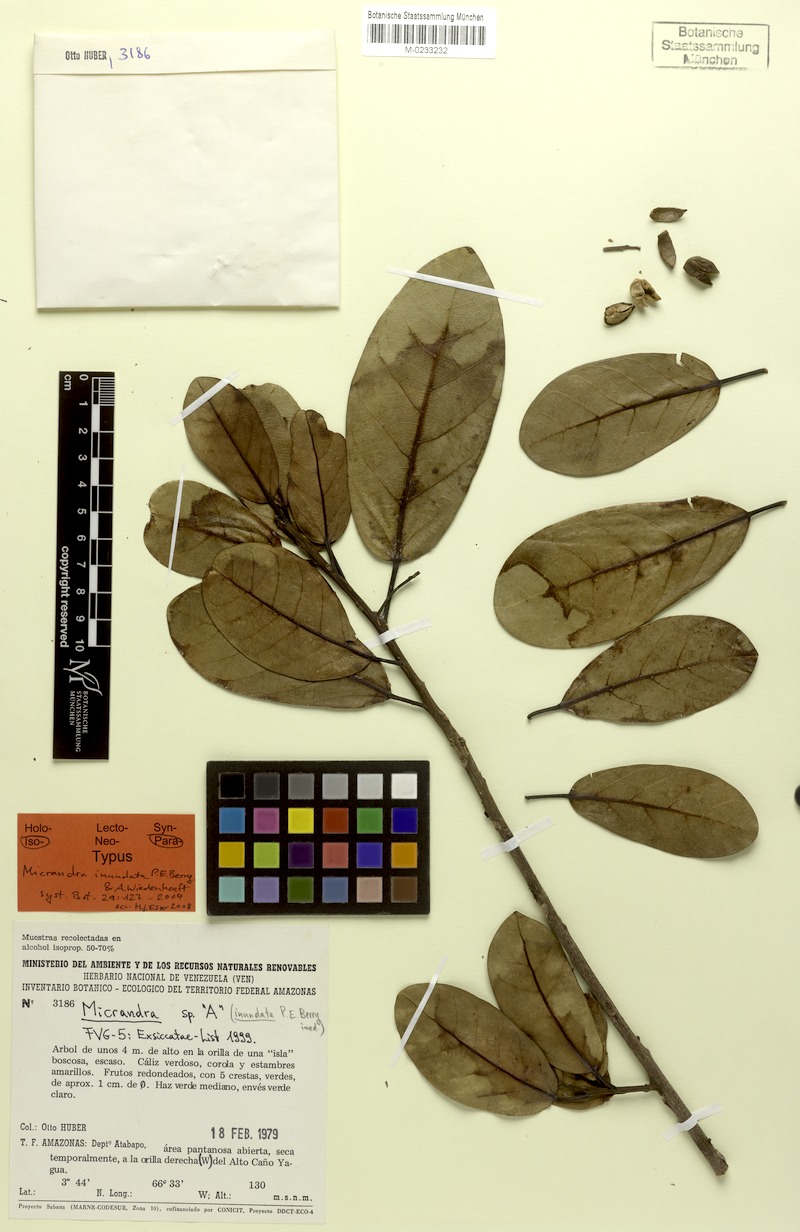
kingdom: Plantae
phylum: Tracheophyta
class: Magnoliopsida
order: Malpighiales
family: Euphorbiaceae
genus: Micrandra
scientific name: Micrandra inundata
